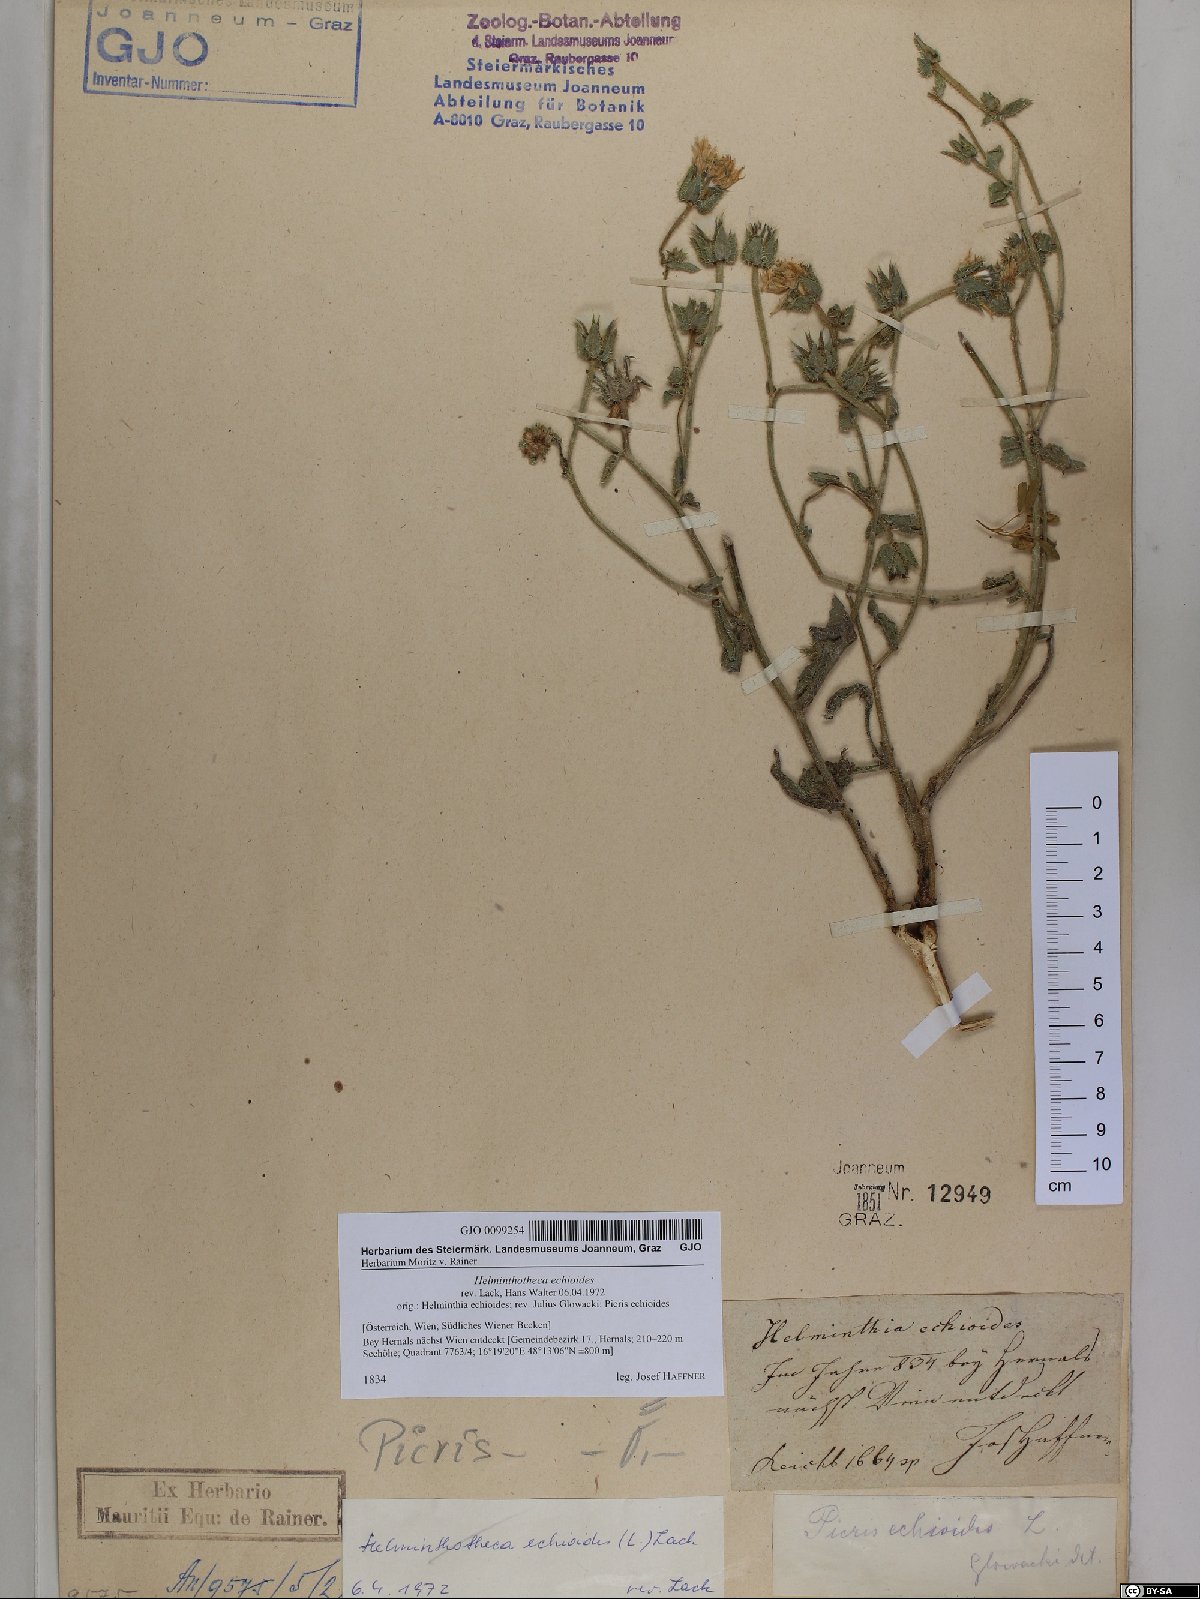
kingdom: Plantae
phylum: Tracheophyta
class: Magnoliopsida
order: Asterales
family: Asteraceae
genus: Helminthotheca
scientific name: Helminthotheca echioides
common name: Ox-tongue
